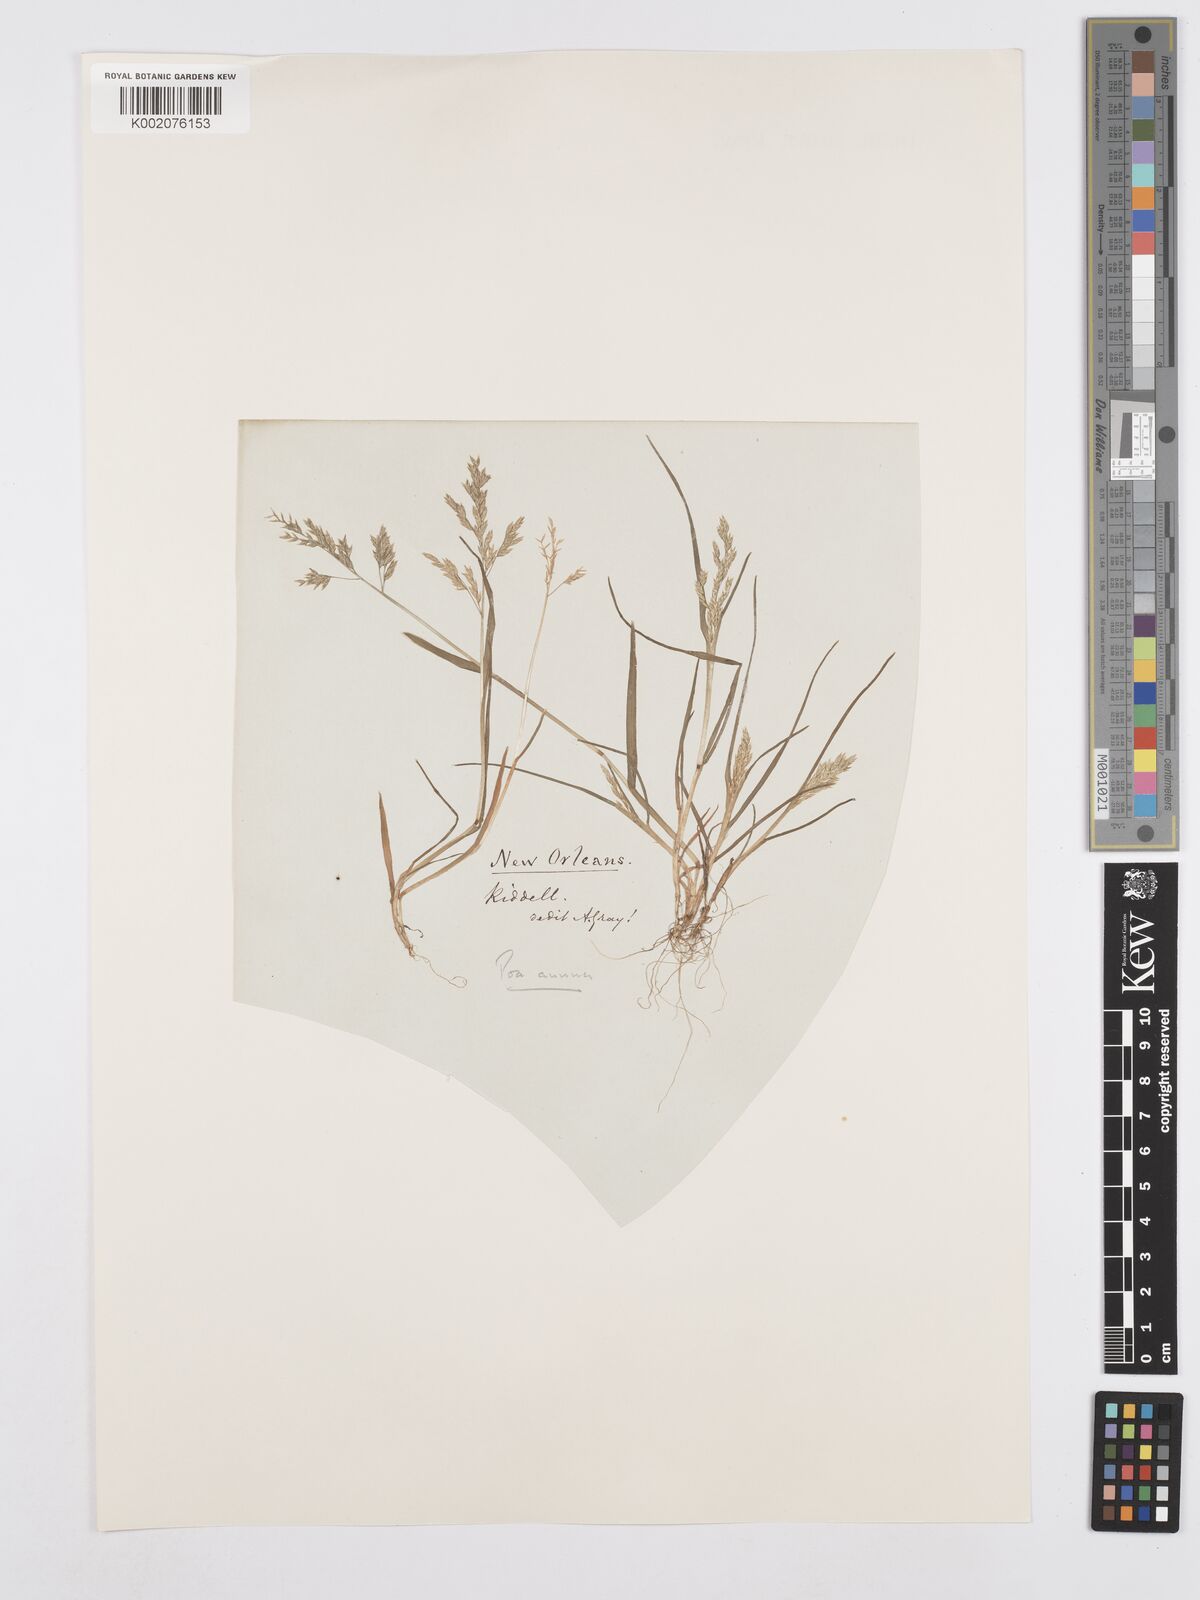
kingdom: Plantae
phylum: Tracheophyta
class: Liliopsida
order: Poales
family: Poaceae
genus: Poa
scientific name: Poa annua
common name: Annual bluegrass
